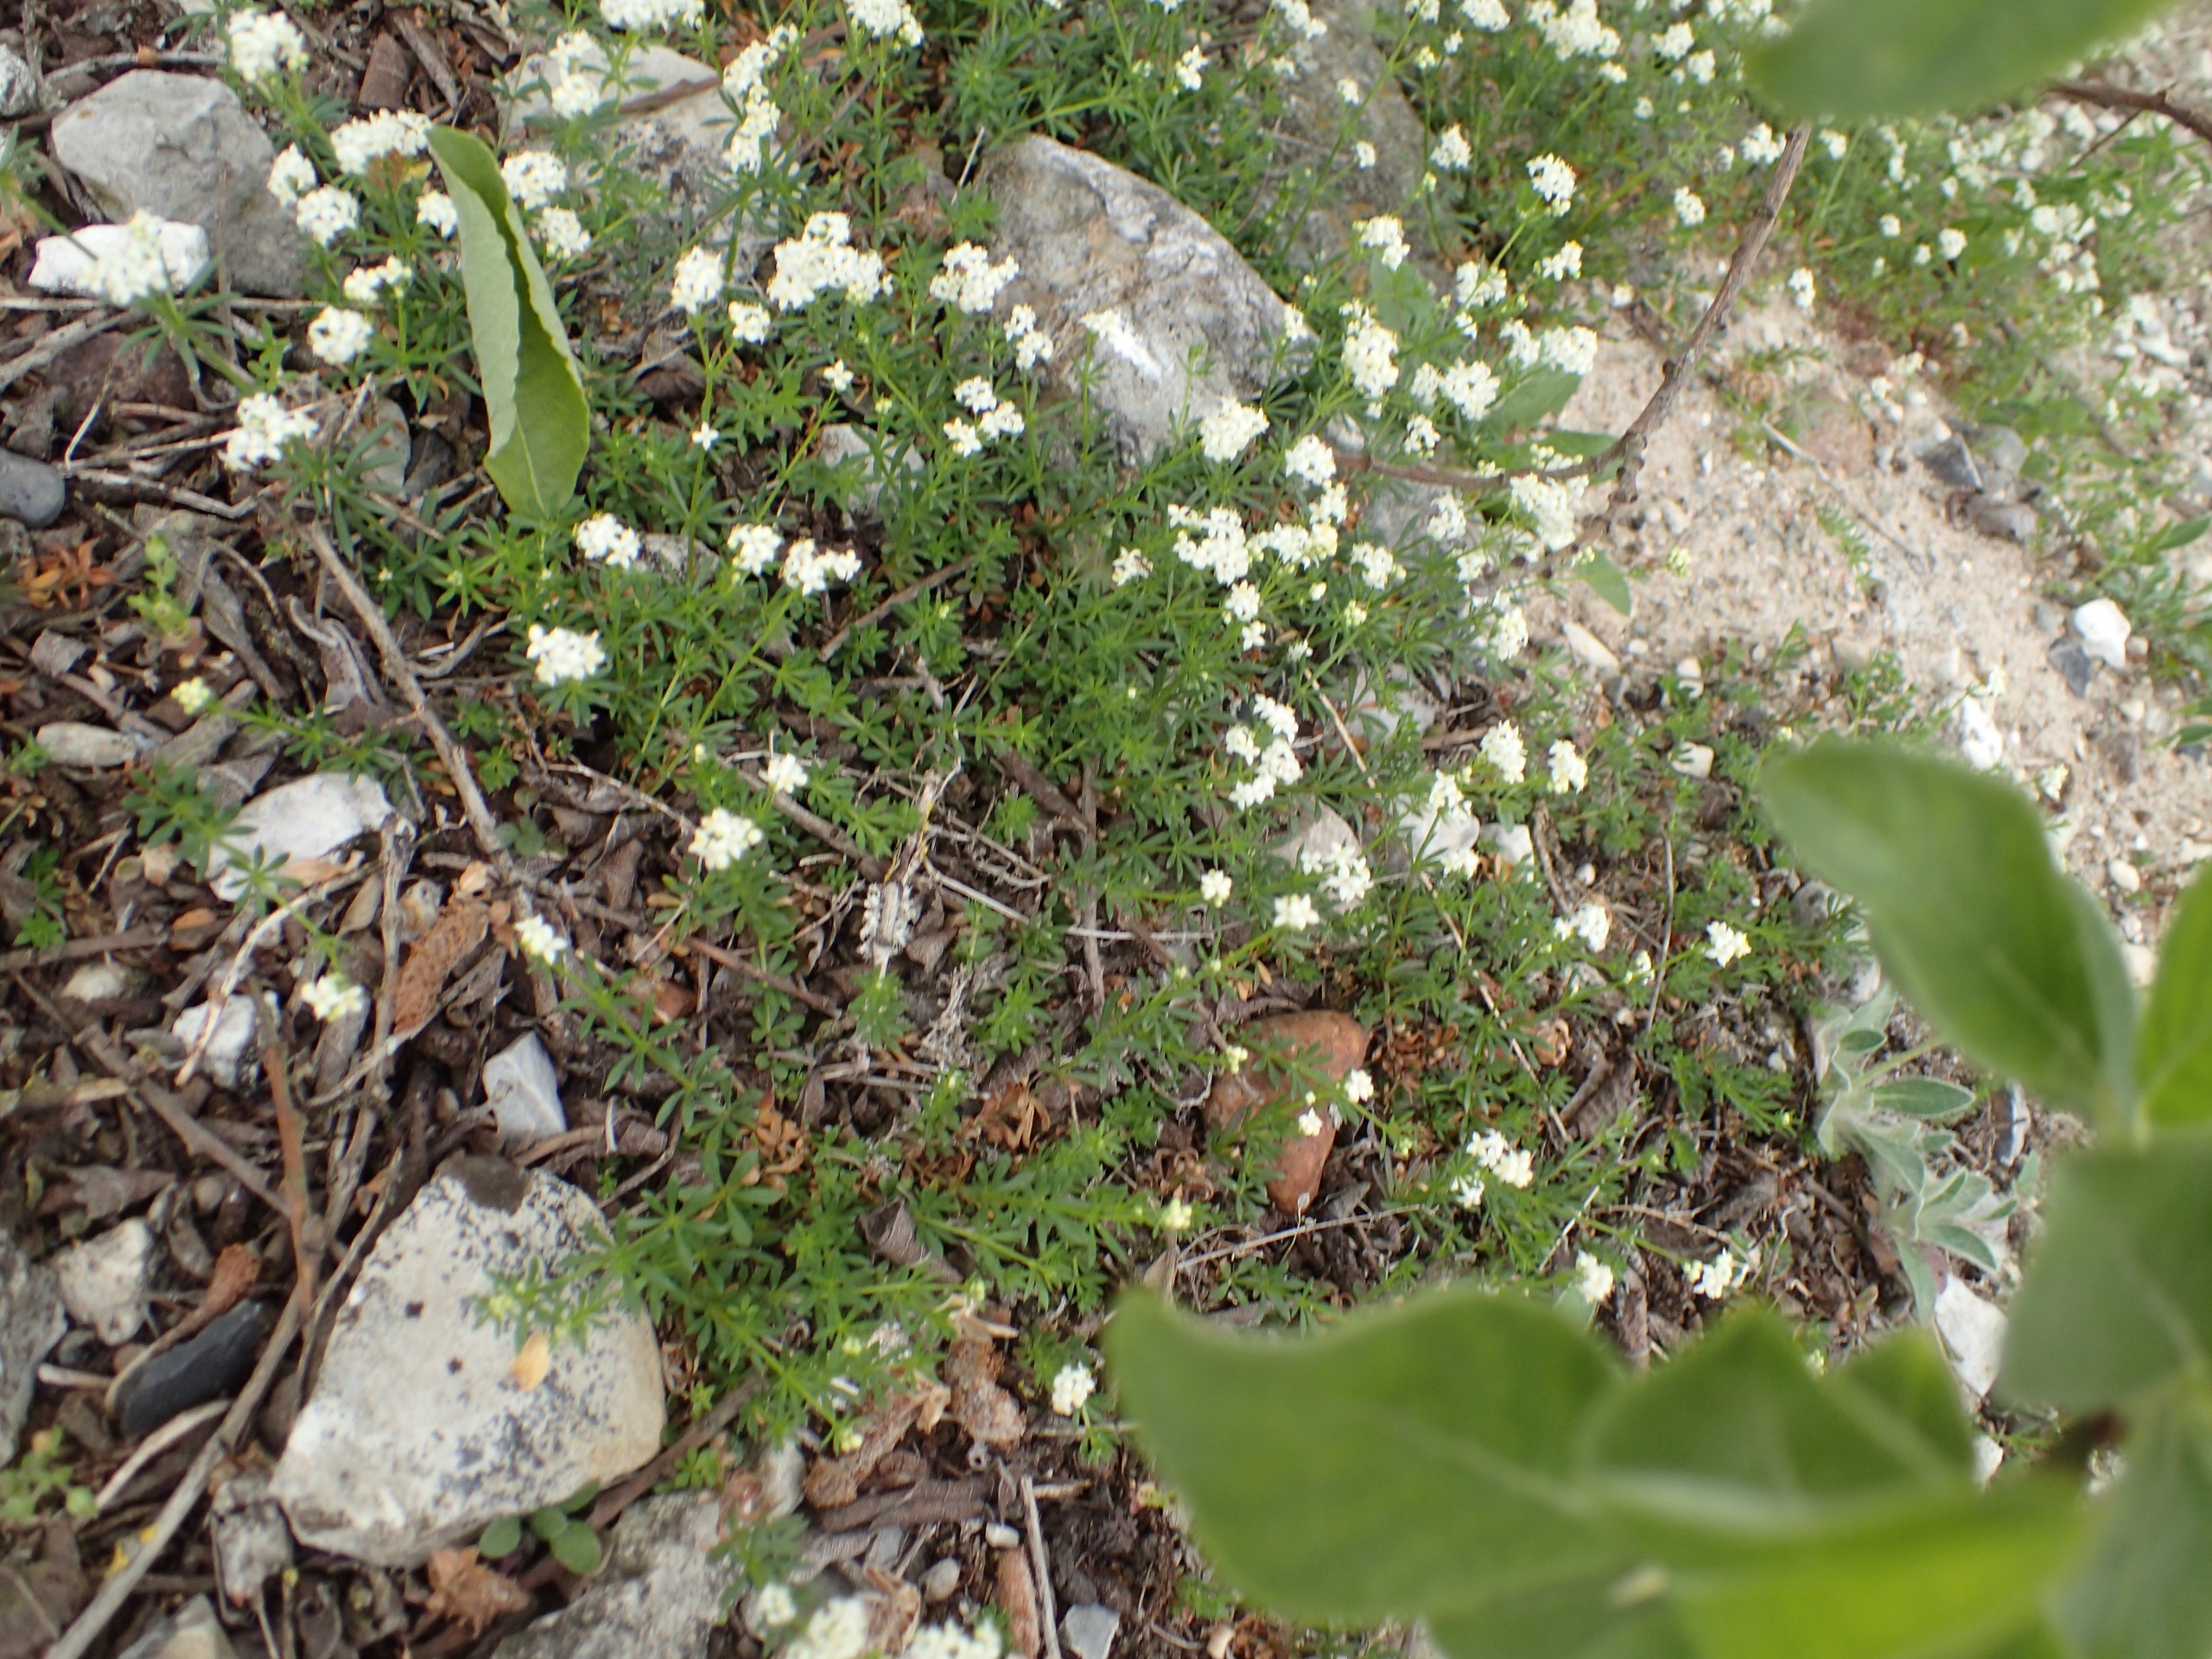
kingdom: Plantae
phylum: Tracheophyta
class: Magnoliopsida
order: Gentianales
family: Rubiaceae
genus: Galium
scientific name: Galium saxatile
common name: Lyng-snerre
